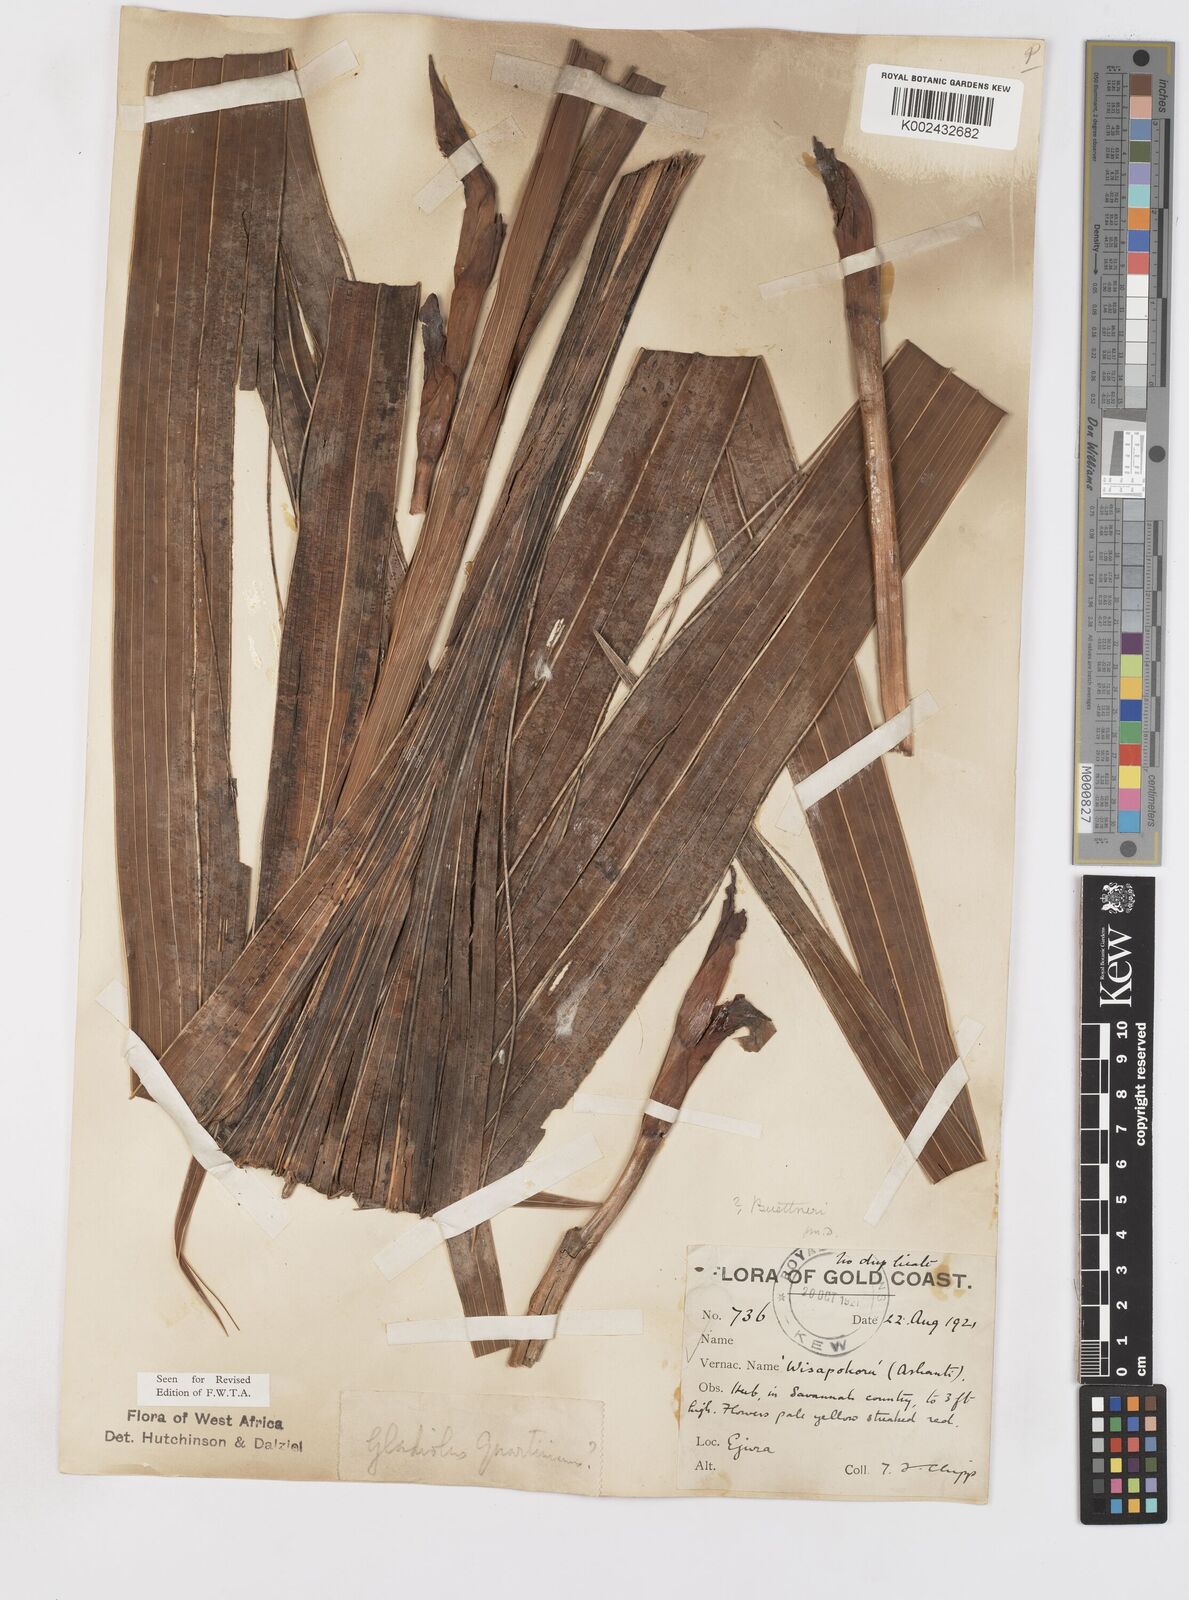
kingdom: Plantae
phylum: Tracheophyta
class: Liliopsida
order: Asparagales
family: Iridaceae
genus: Gladiolus
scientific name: Gladiolus dalenii
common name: Cornflag
